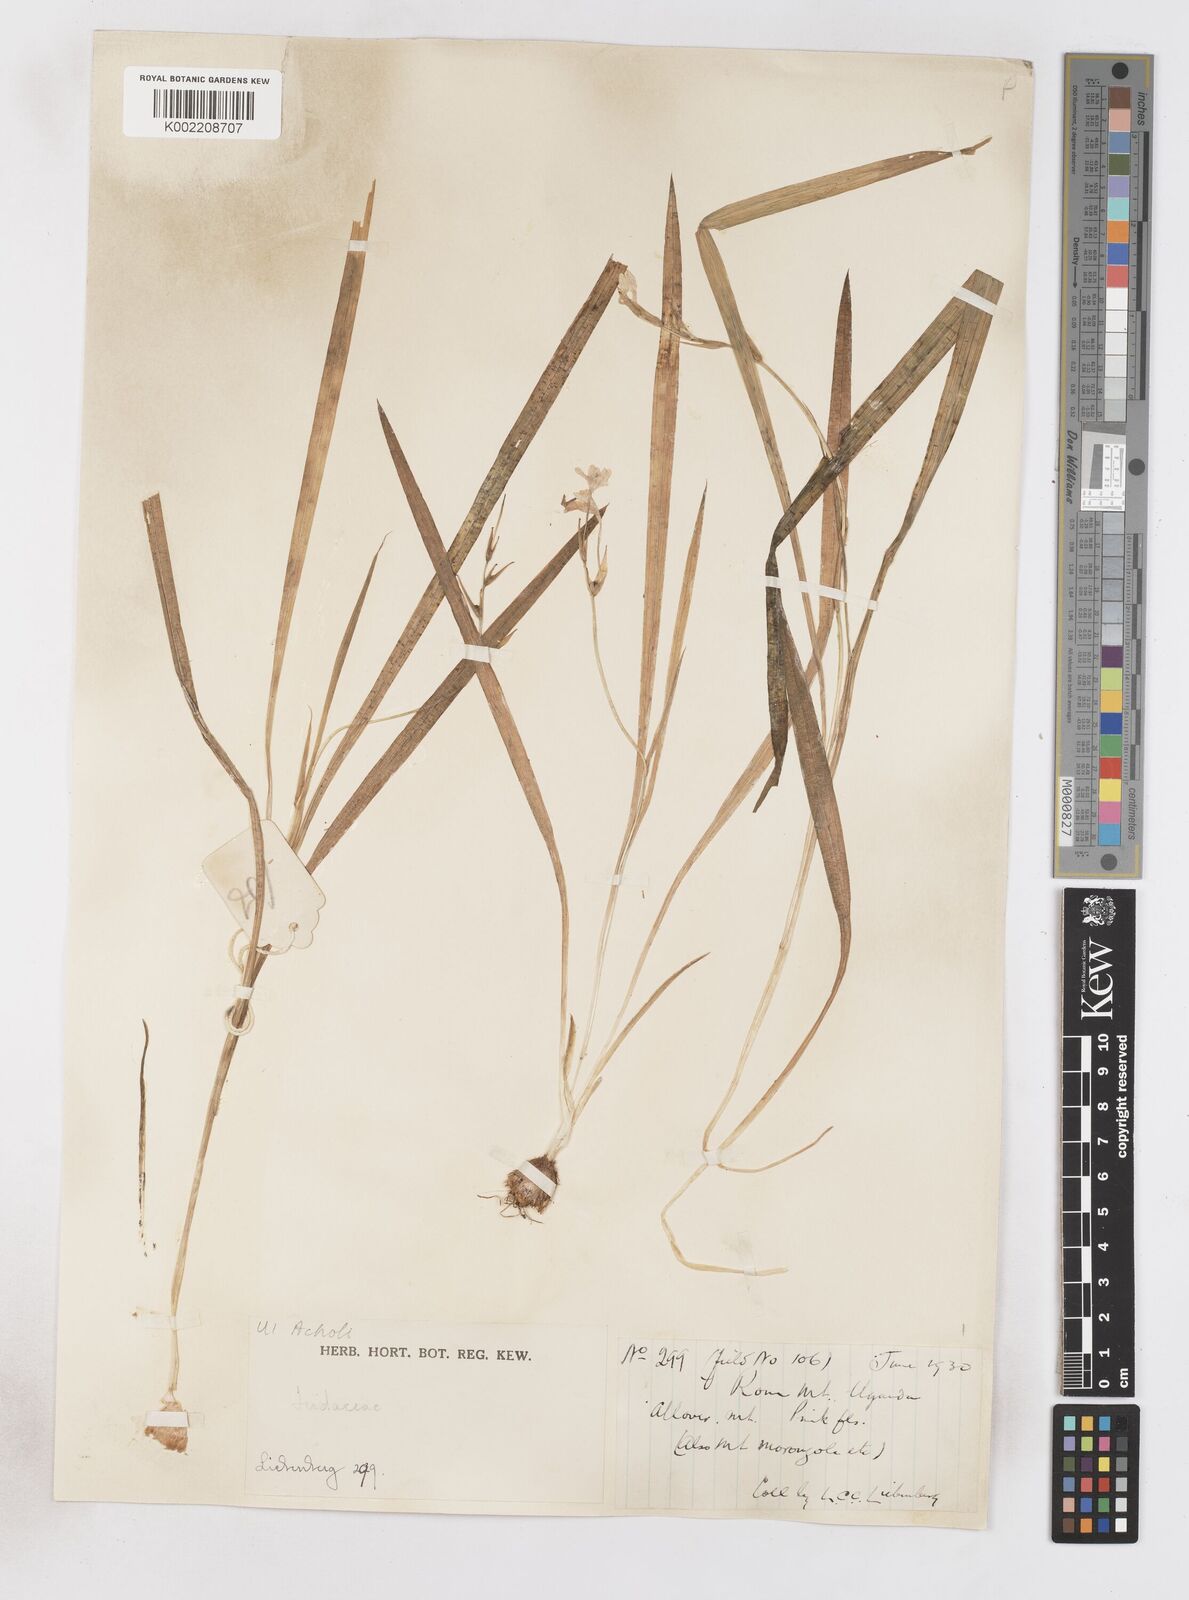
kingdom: Plantae
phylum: Tracheophyta
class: Liliopsida
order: Asparagales
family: Iridaceae
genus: Freesia
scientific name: Freesia laxa
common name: False freesia
